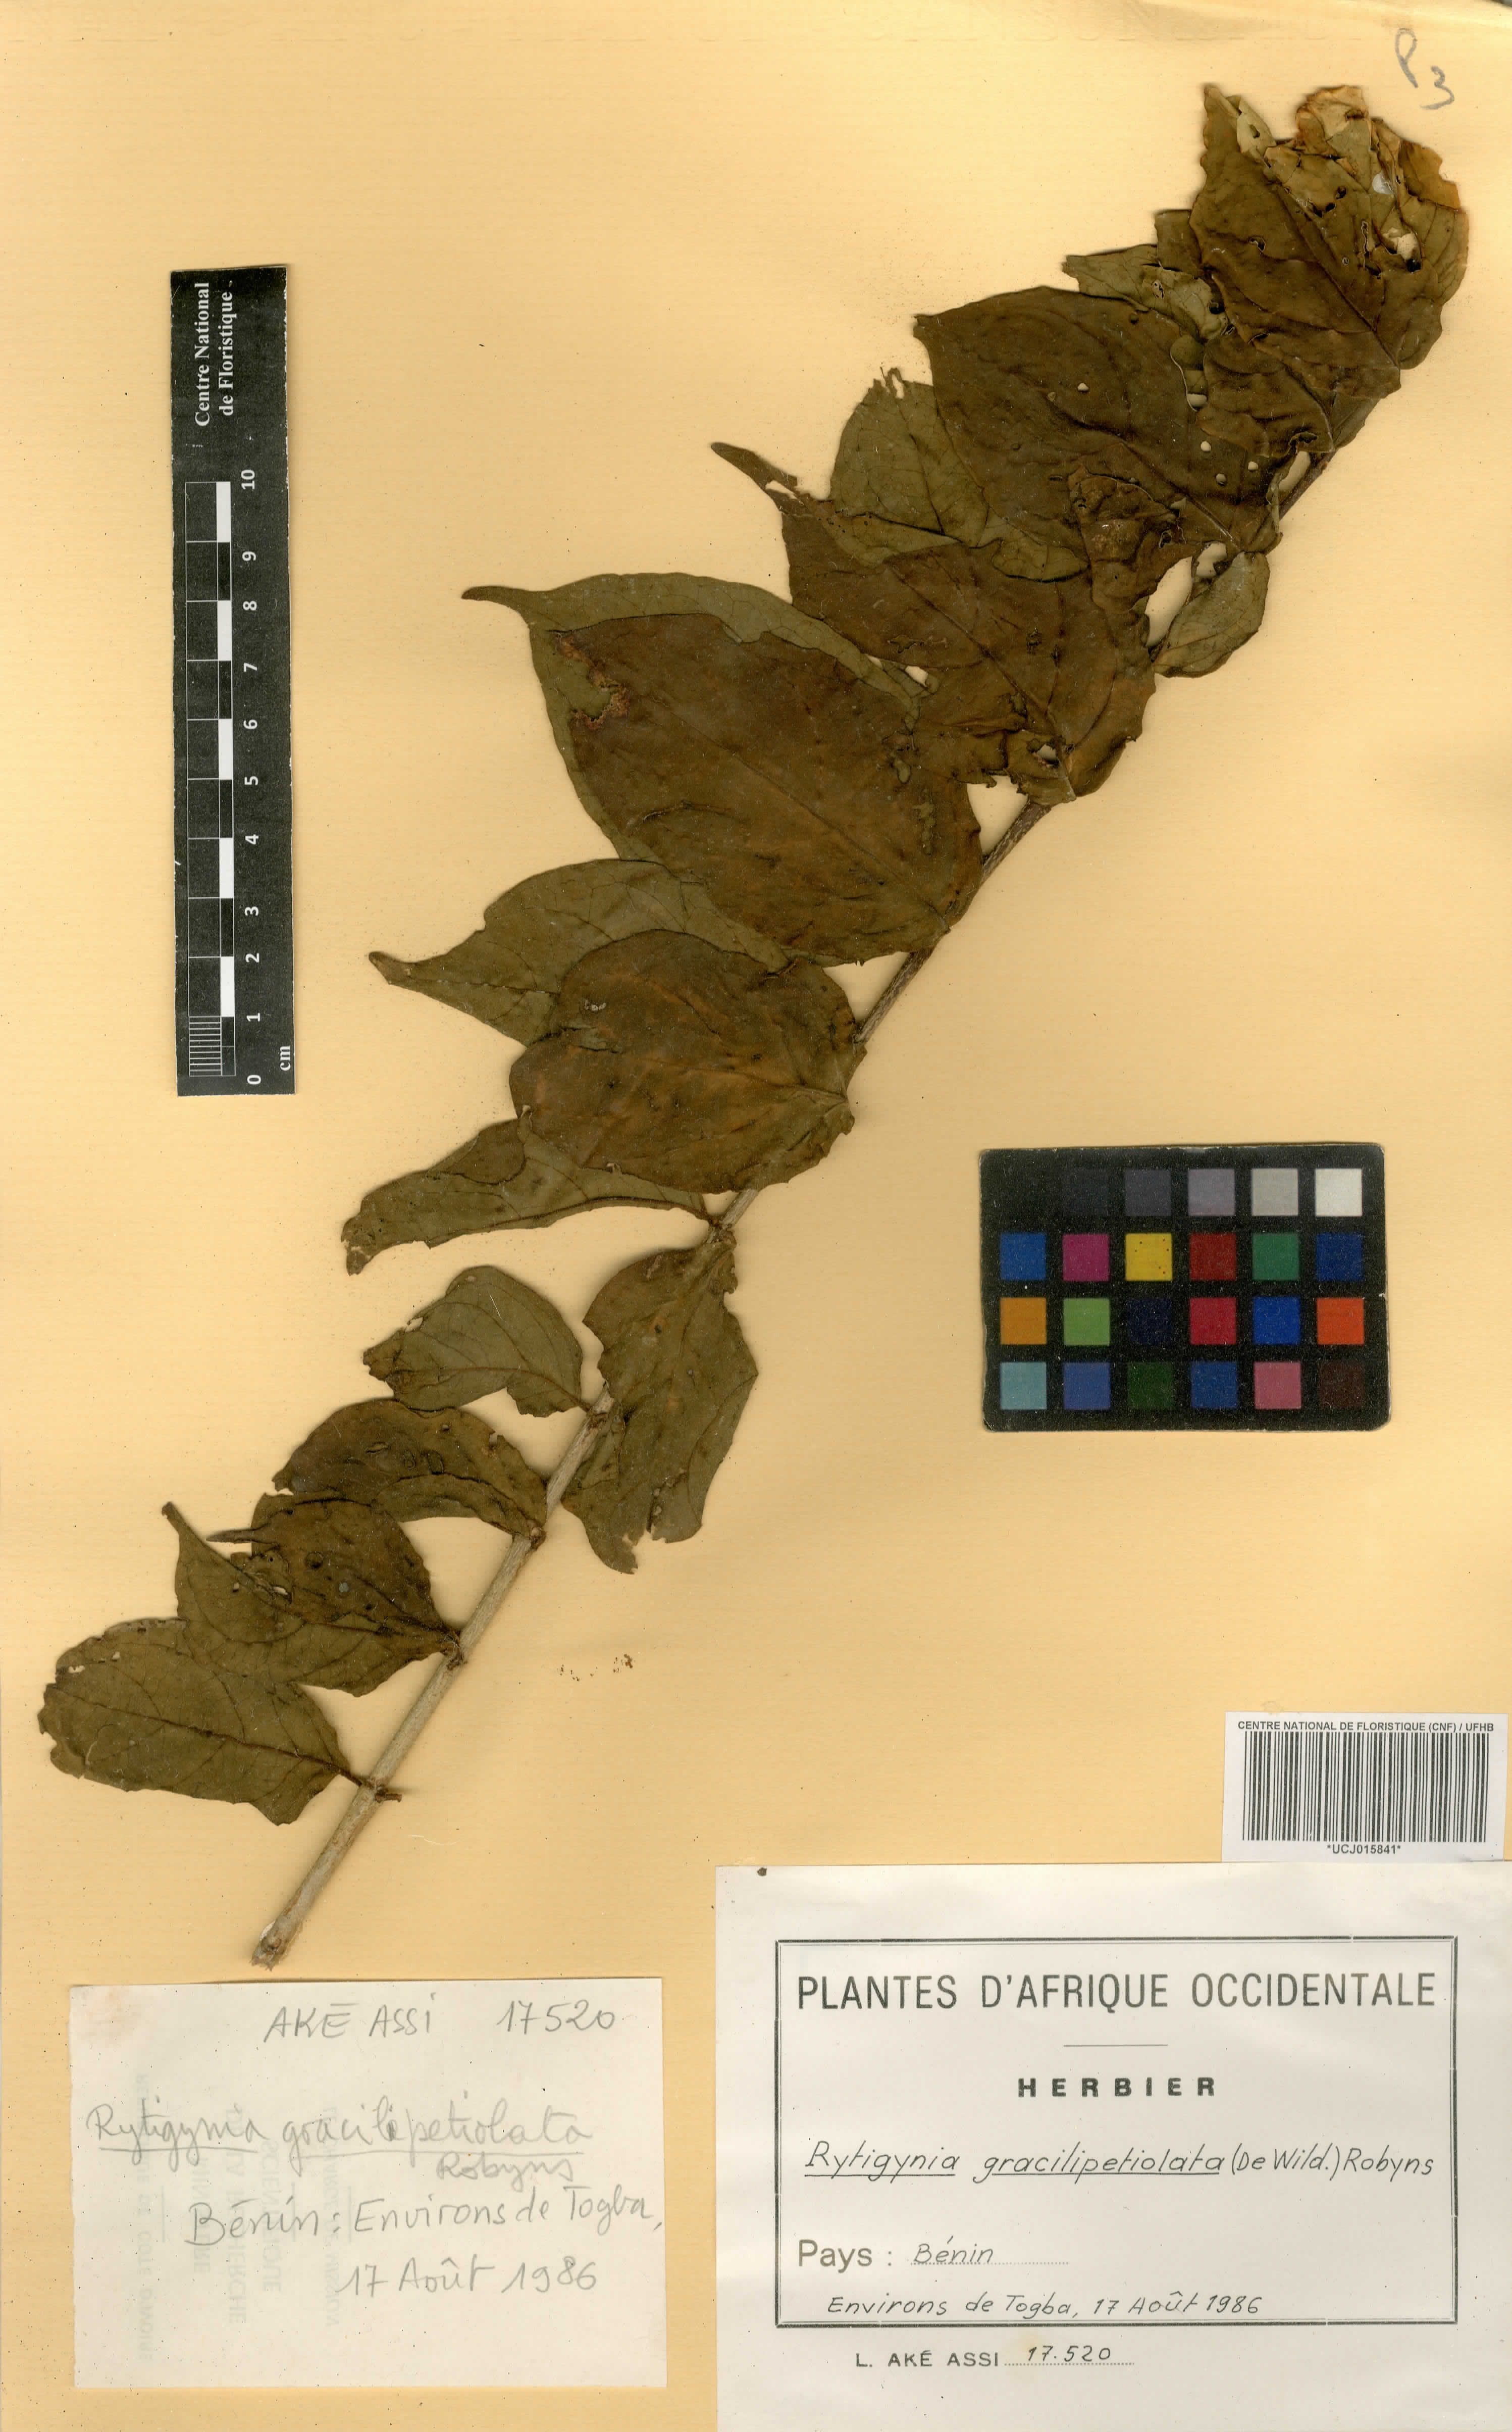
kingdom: Plantae
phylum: Tracheophyta
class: Magnoliopsida
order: Gentianales
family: Rubiaceae
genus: Rytigynia
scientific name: Rytigynia gracilipetiolata
